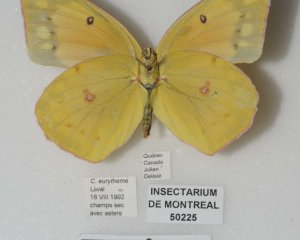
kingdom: Animalia
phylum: Arthropoda
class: Insecta
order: Lepidoptera
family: Pieridae
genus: Colias
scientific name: Colias eurytheme
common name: Orange Sulphur
